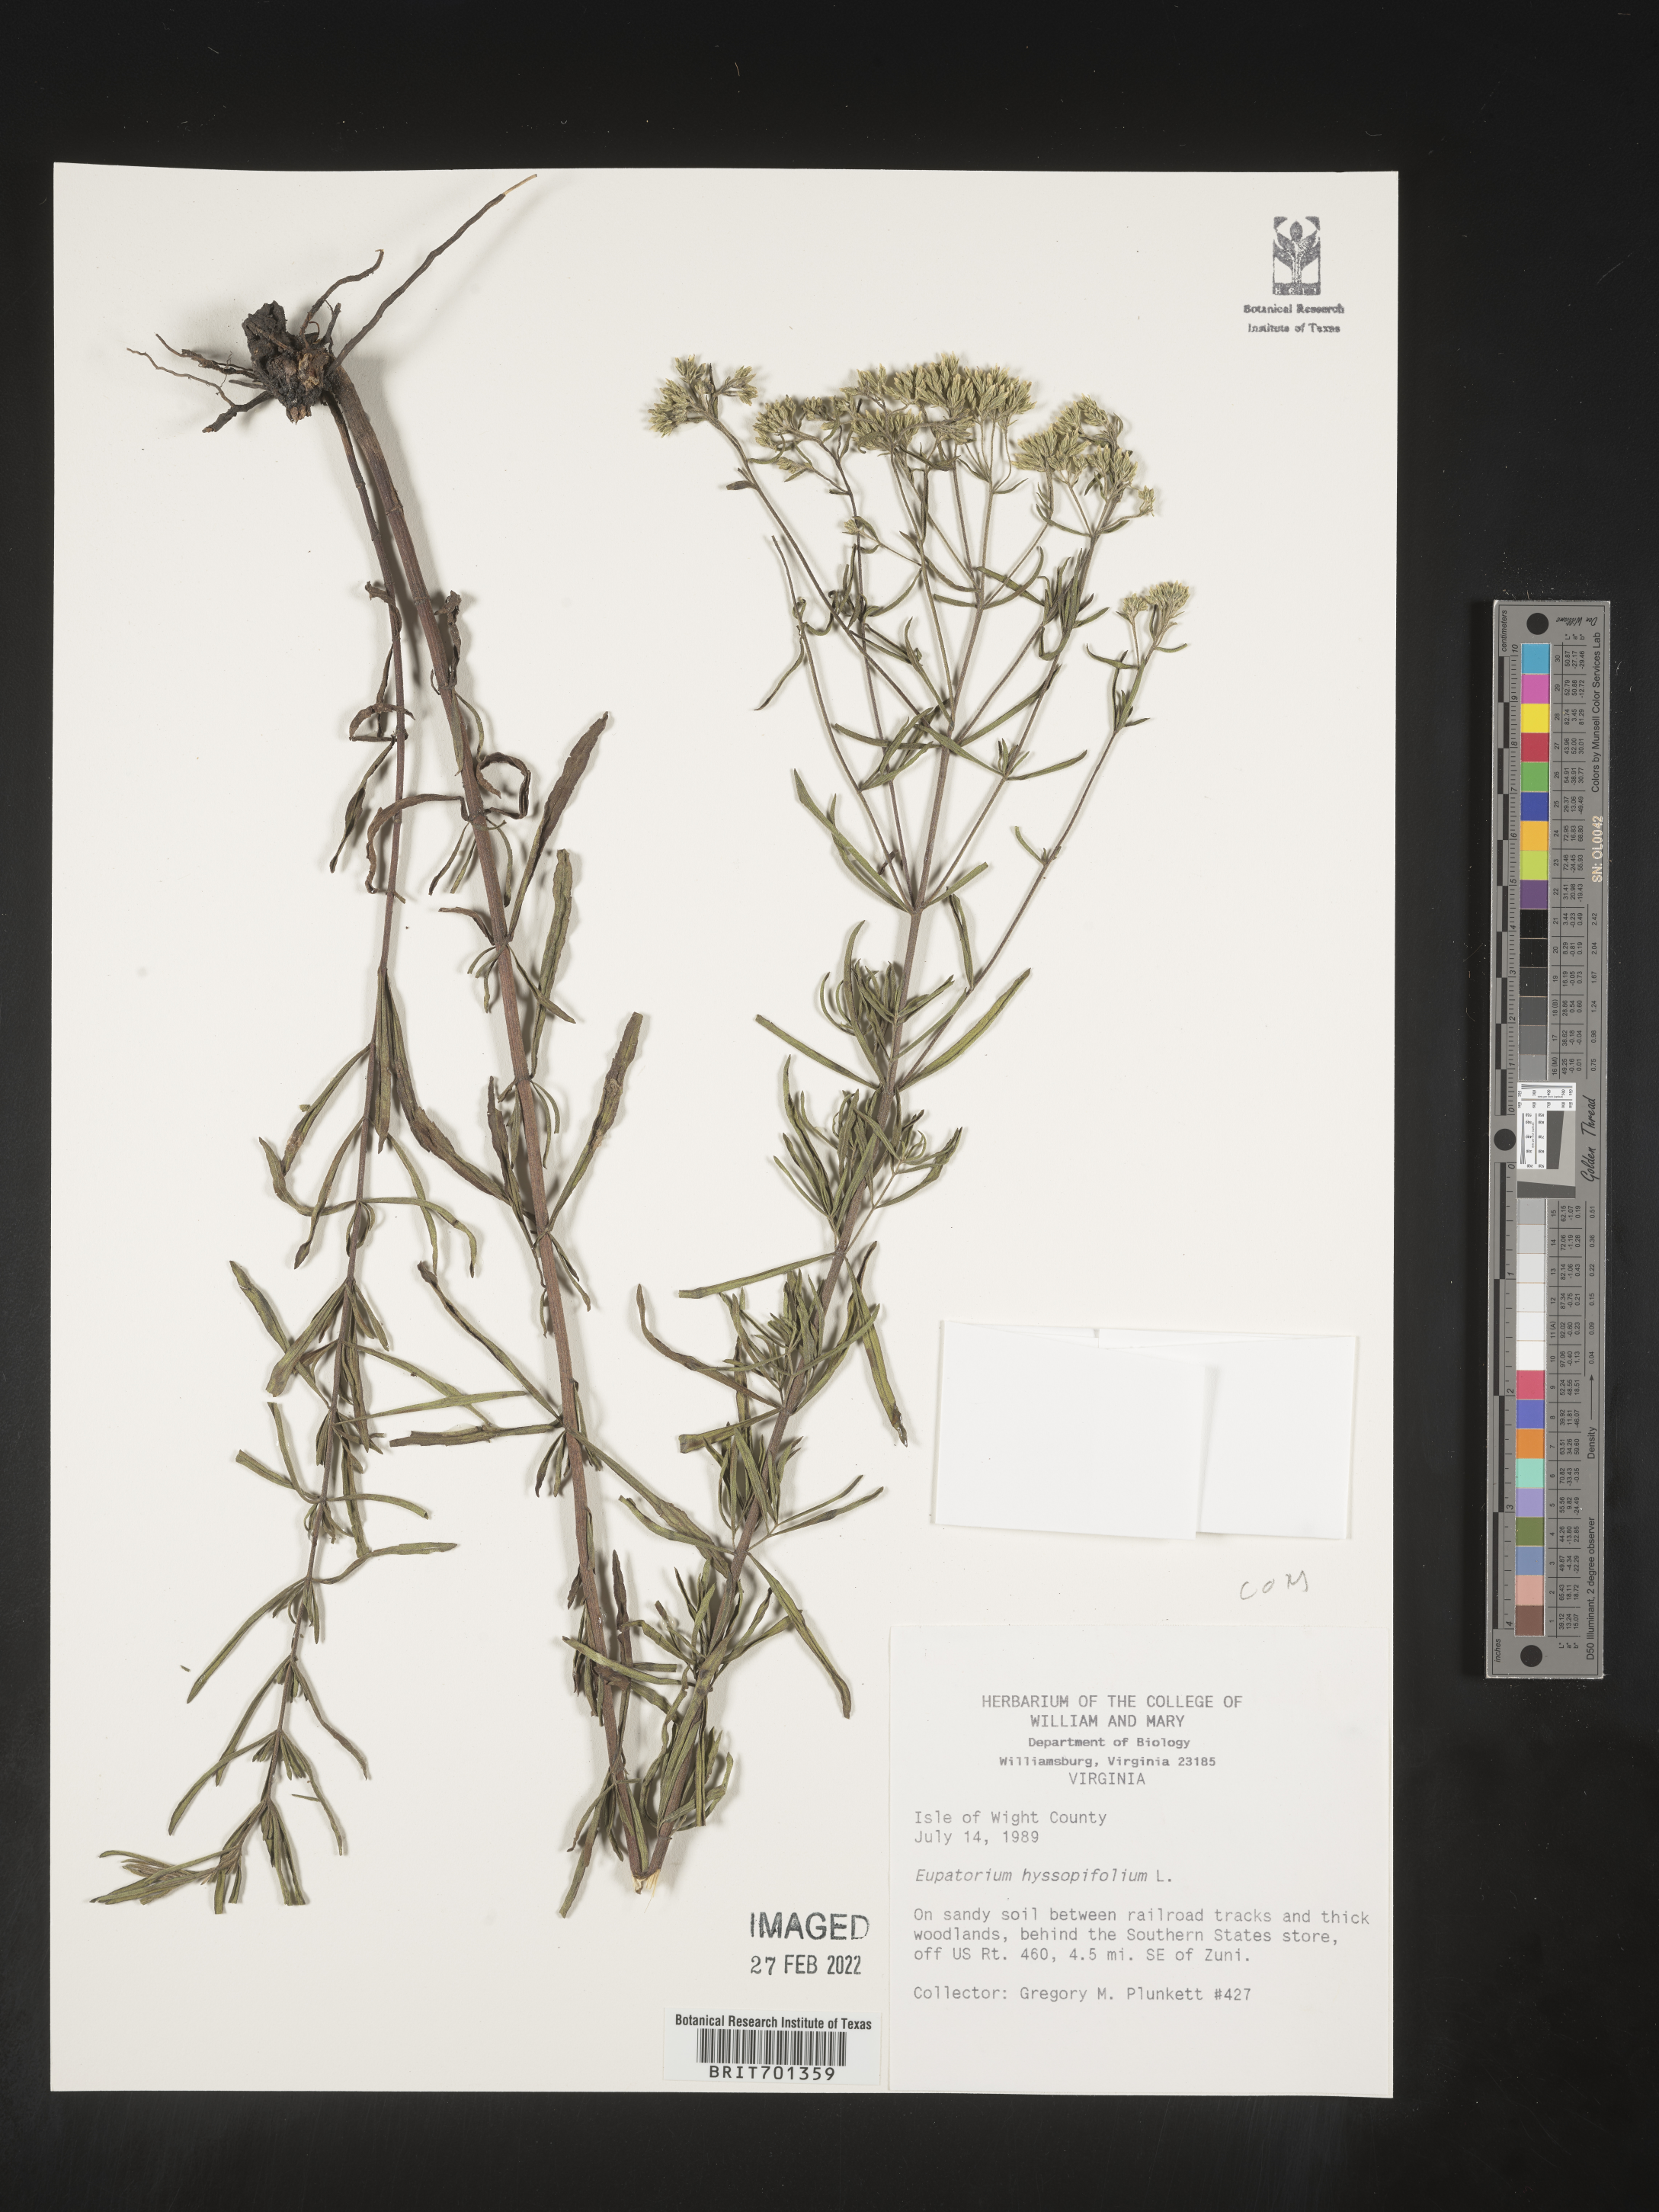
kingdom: Plantae
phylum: Tracheophyta
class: Magnoliopsida
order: Asterales
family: Asteraceae
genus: Eupatorium
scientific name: Eupatorium hyssopifolium
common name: Hyssop-leaf thoroughwort
